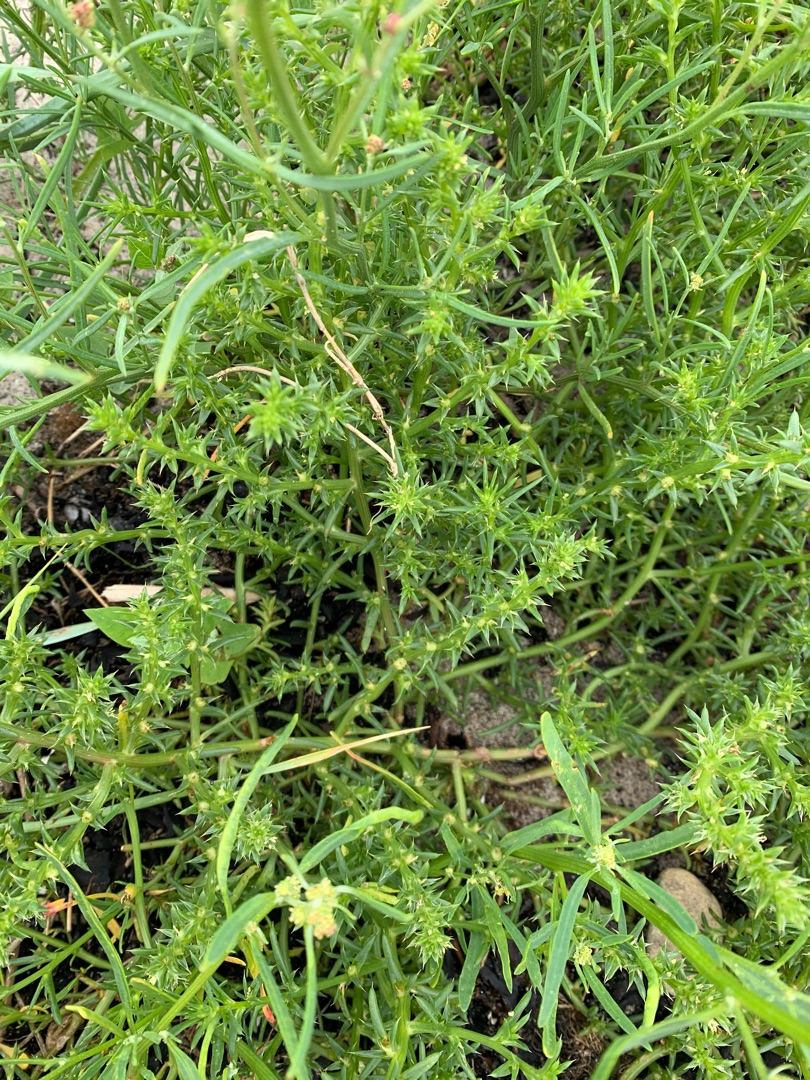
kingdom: Plantae
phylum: Tracheophyta
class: Magnoliopsida
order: Caryophyllales
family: Amaranthaceae
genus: Salsola
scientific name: Salsola kali
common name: Sodaurt
